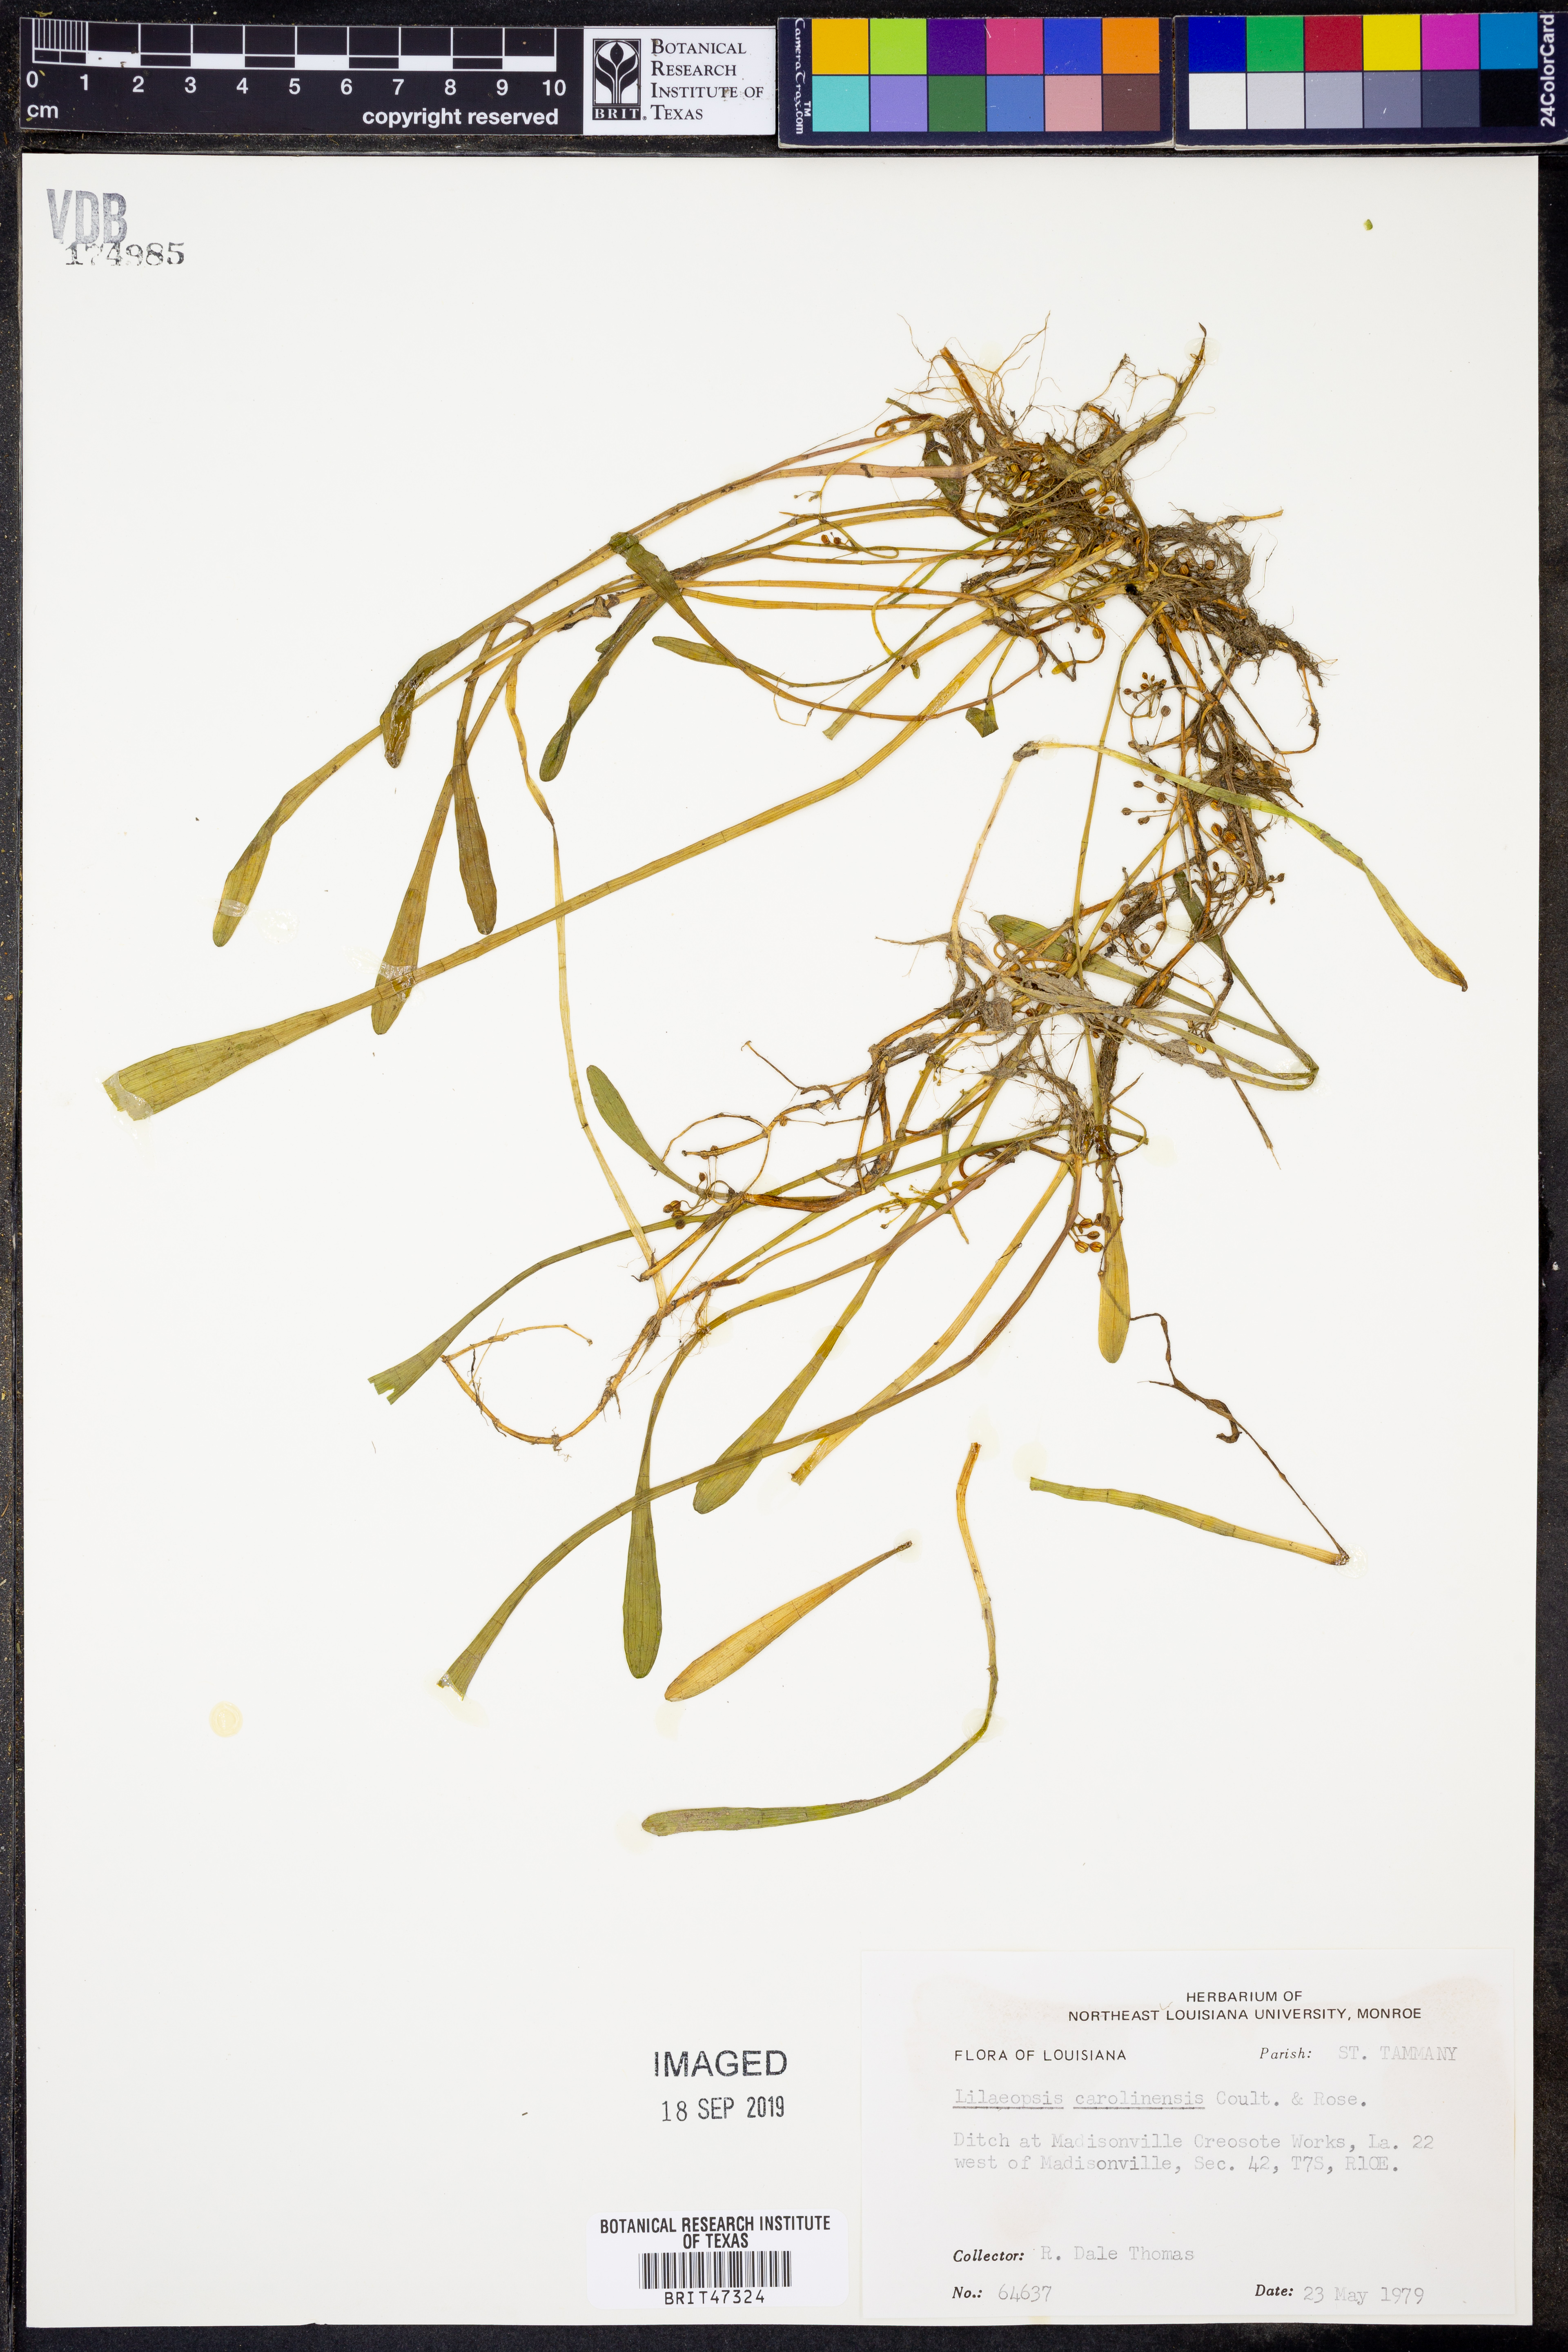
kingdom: Plantae
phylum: Tracheophyta
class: Magnoliopsida
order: Apiales
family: Apiaceae
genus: Lilaeopsis
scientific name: Lilaeopsis carolinensis
